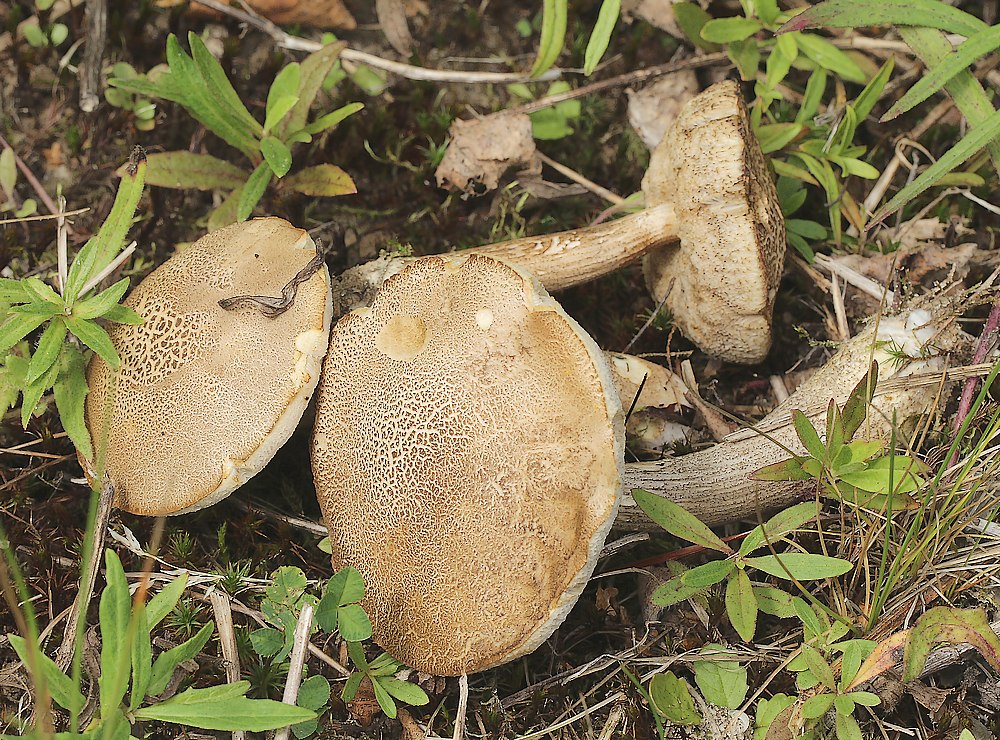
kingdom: Fungi
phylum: Basidiomycota
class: Agaricomycetes
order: Boletales
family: Boletaceae
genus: Leccinum
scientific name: Leccinum
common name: skælrørhat
